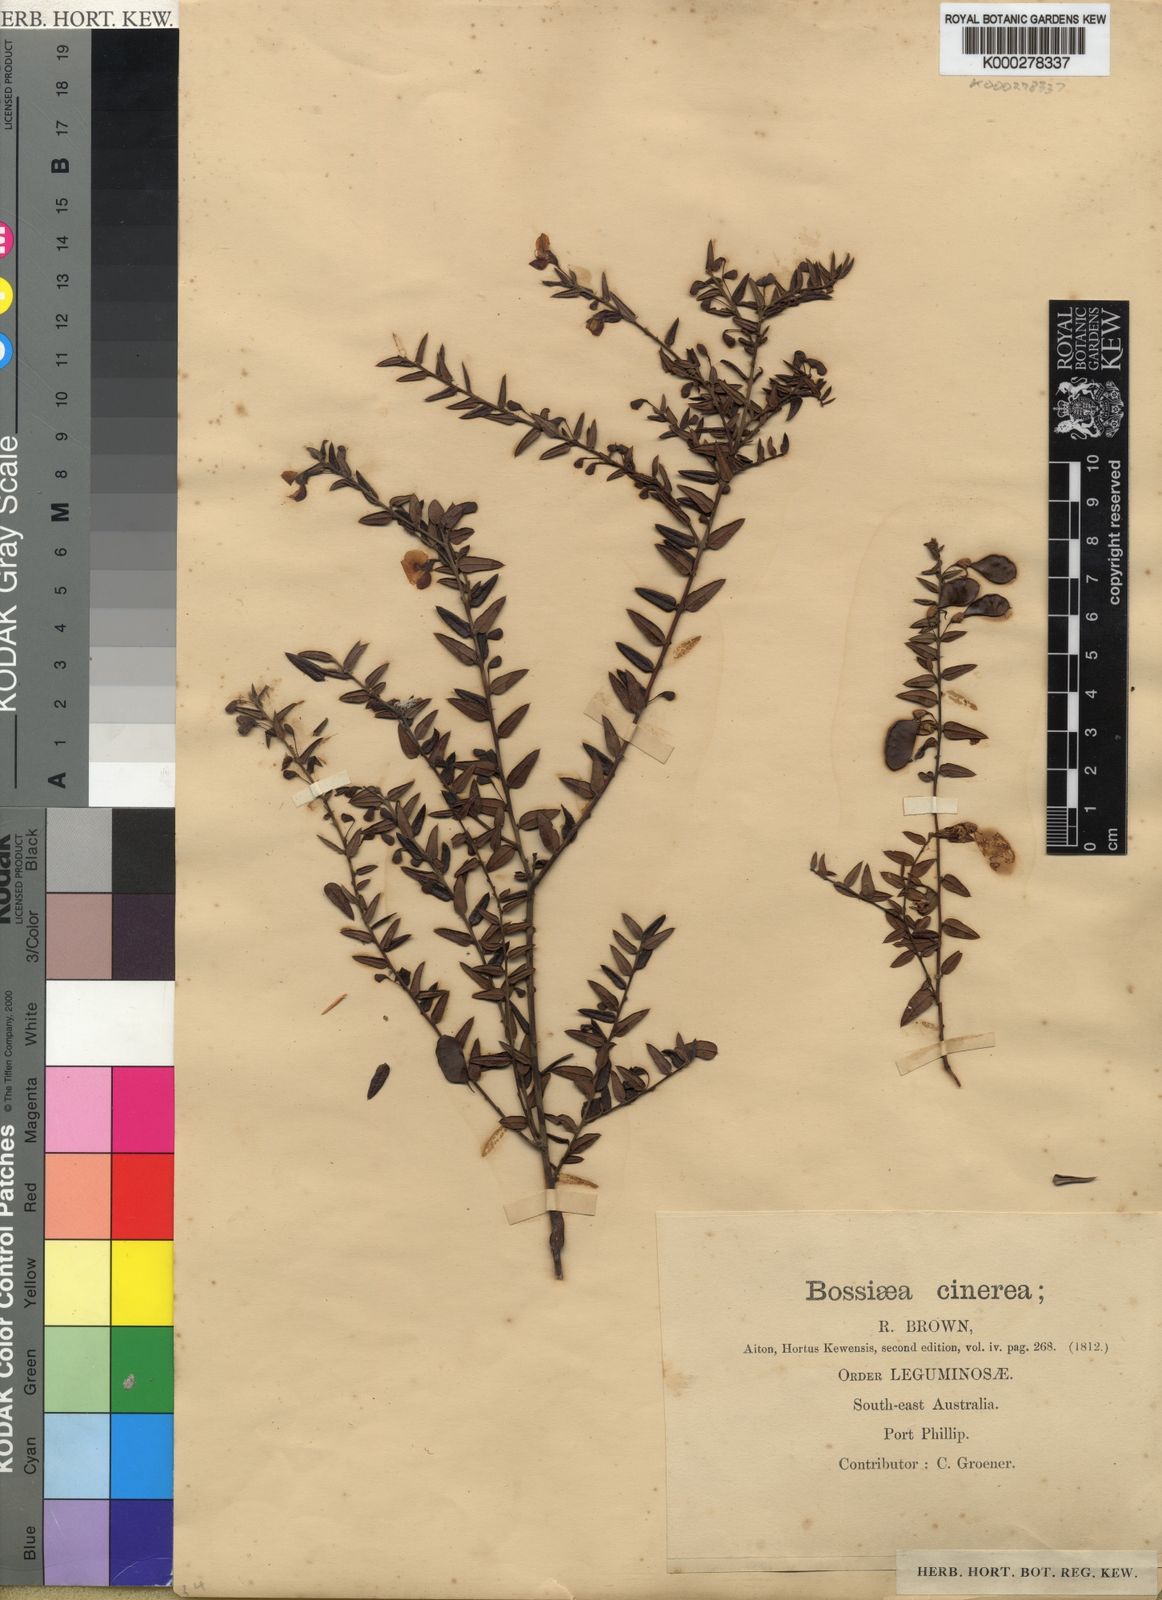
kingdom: Plantae
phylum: Tracheophyta
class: Magnoliopsida
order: Fabales
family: Fabaceae
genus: Bossiaea
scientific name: Bossiaea cinerea
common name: Showy bossiaea
